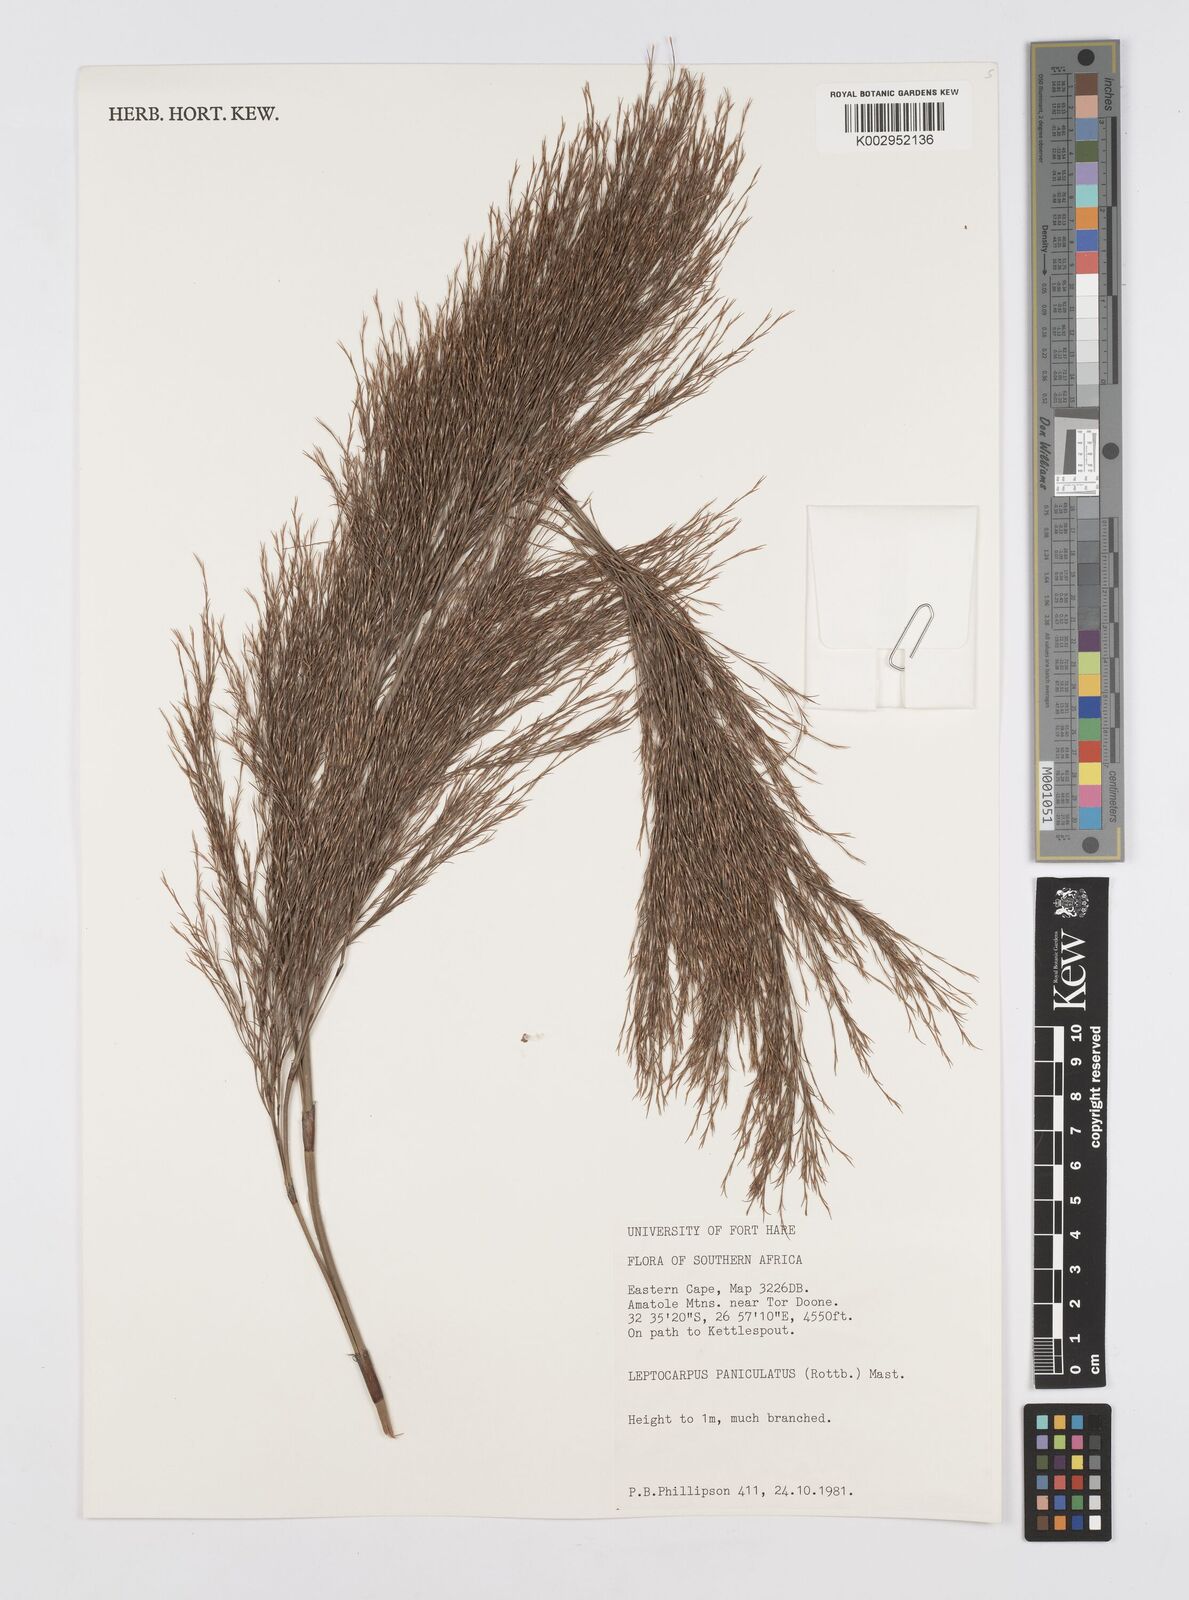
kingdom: Plantae
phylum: Tracheophyta
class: Liliopsida
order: Poales
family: Restionaceae
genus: Restio
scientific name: Restio paniculatus
